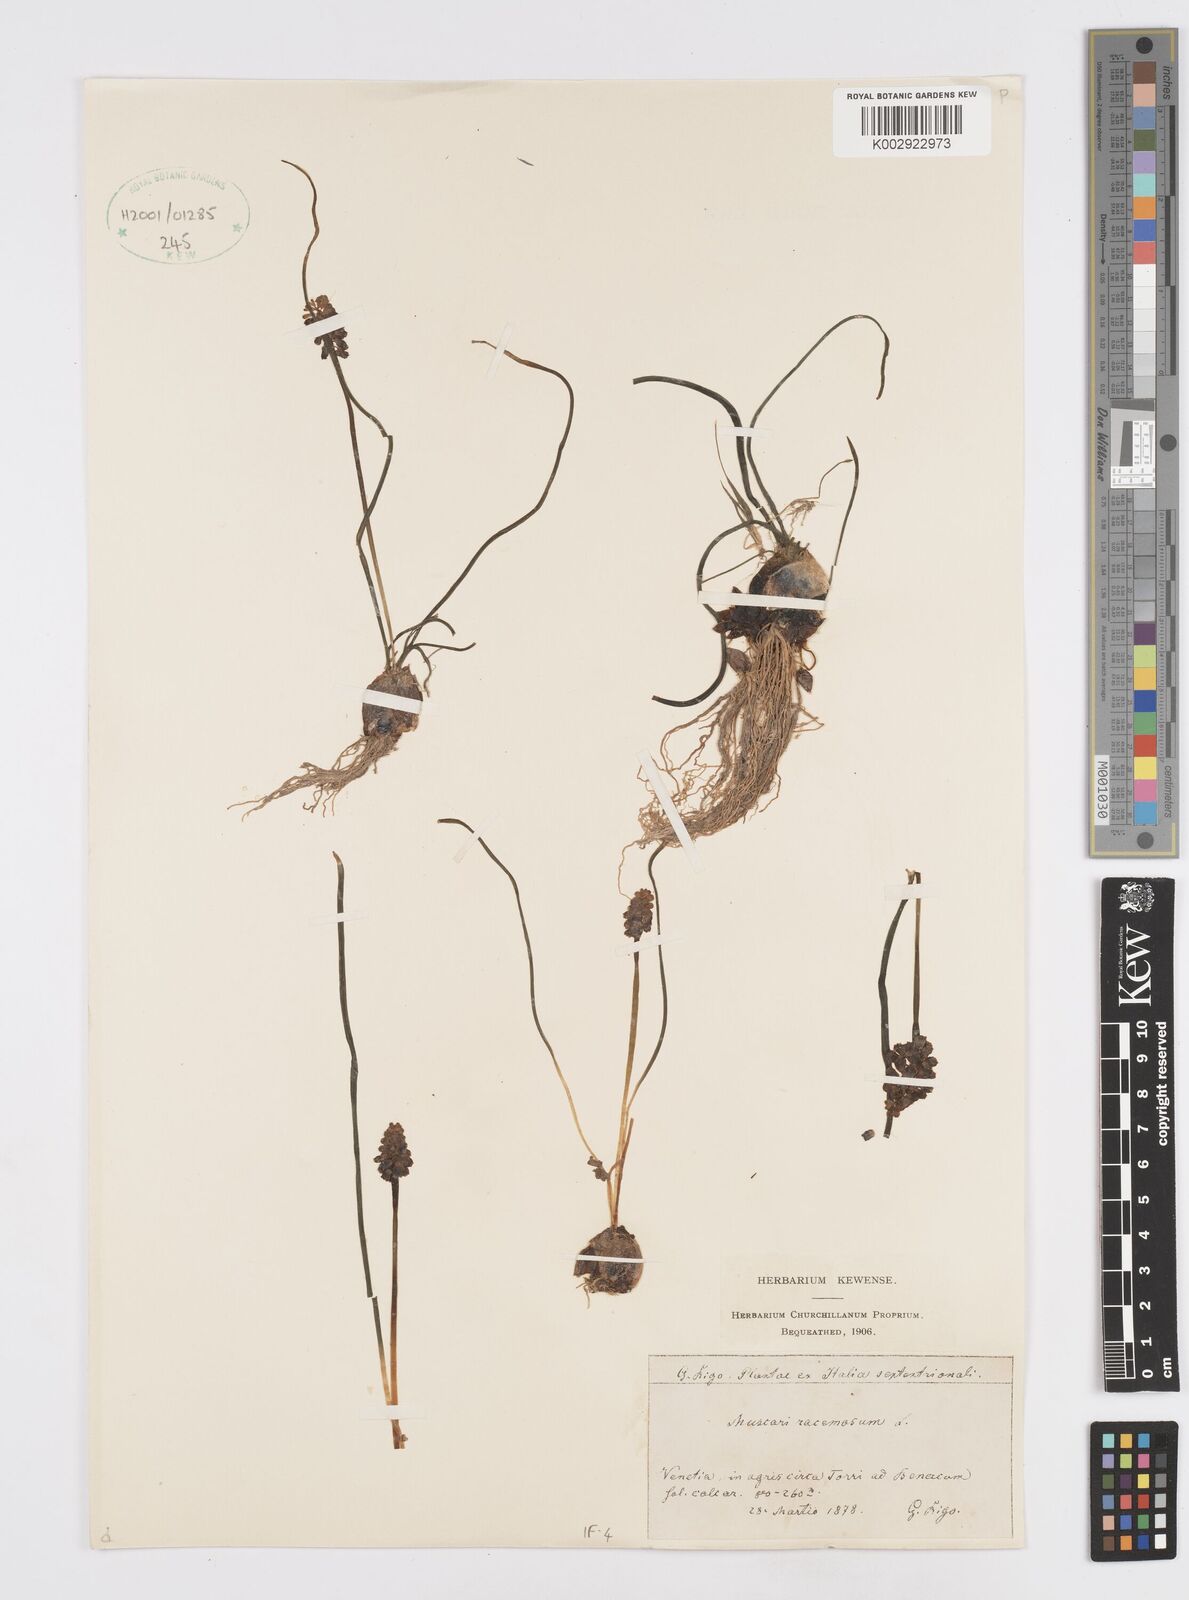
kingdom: Plantae
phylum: Tracheophyta
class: Liliopsida
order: Asparagales
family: Asparagaceae
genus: Muscarimia
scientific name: Muscarimia muscari
